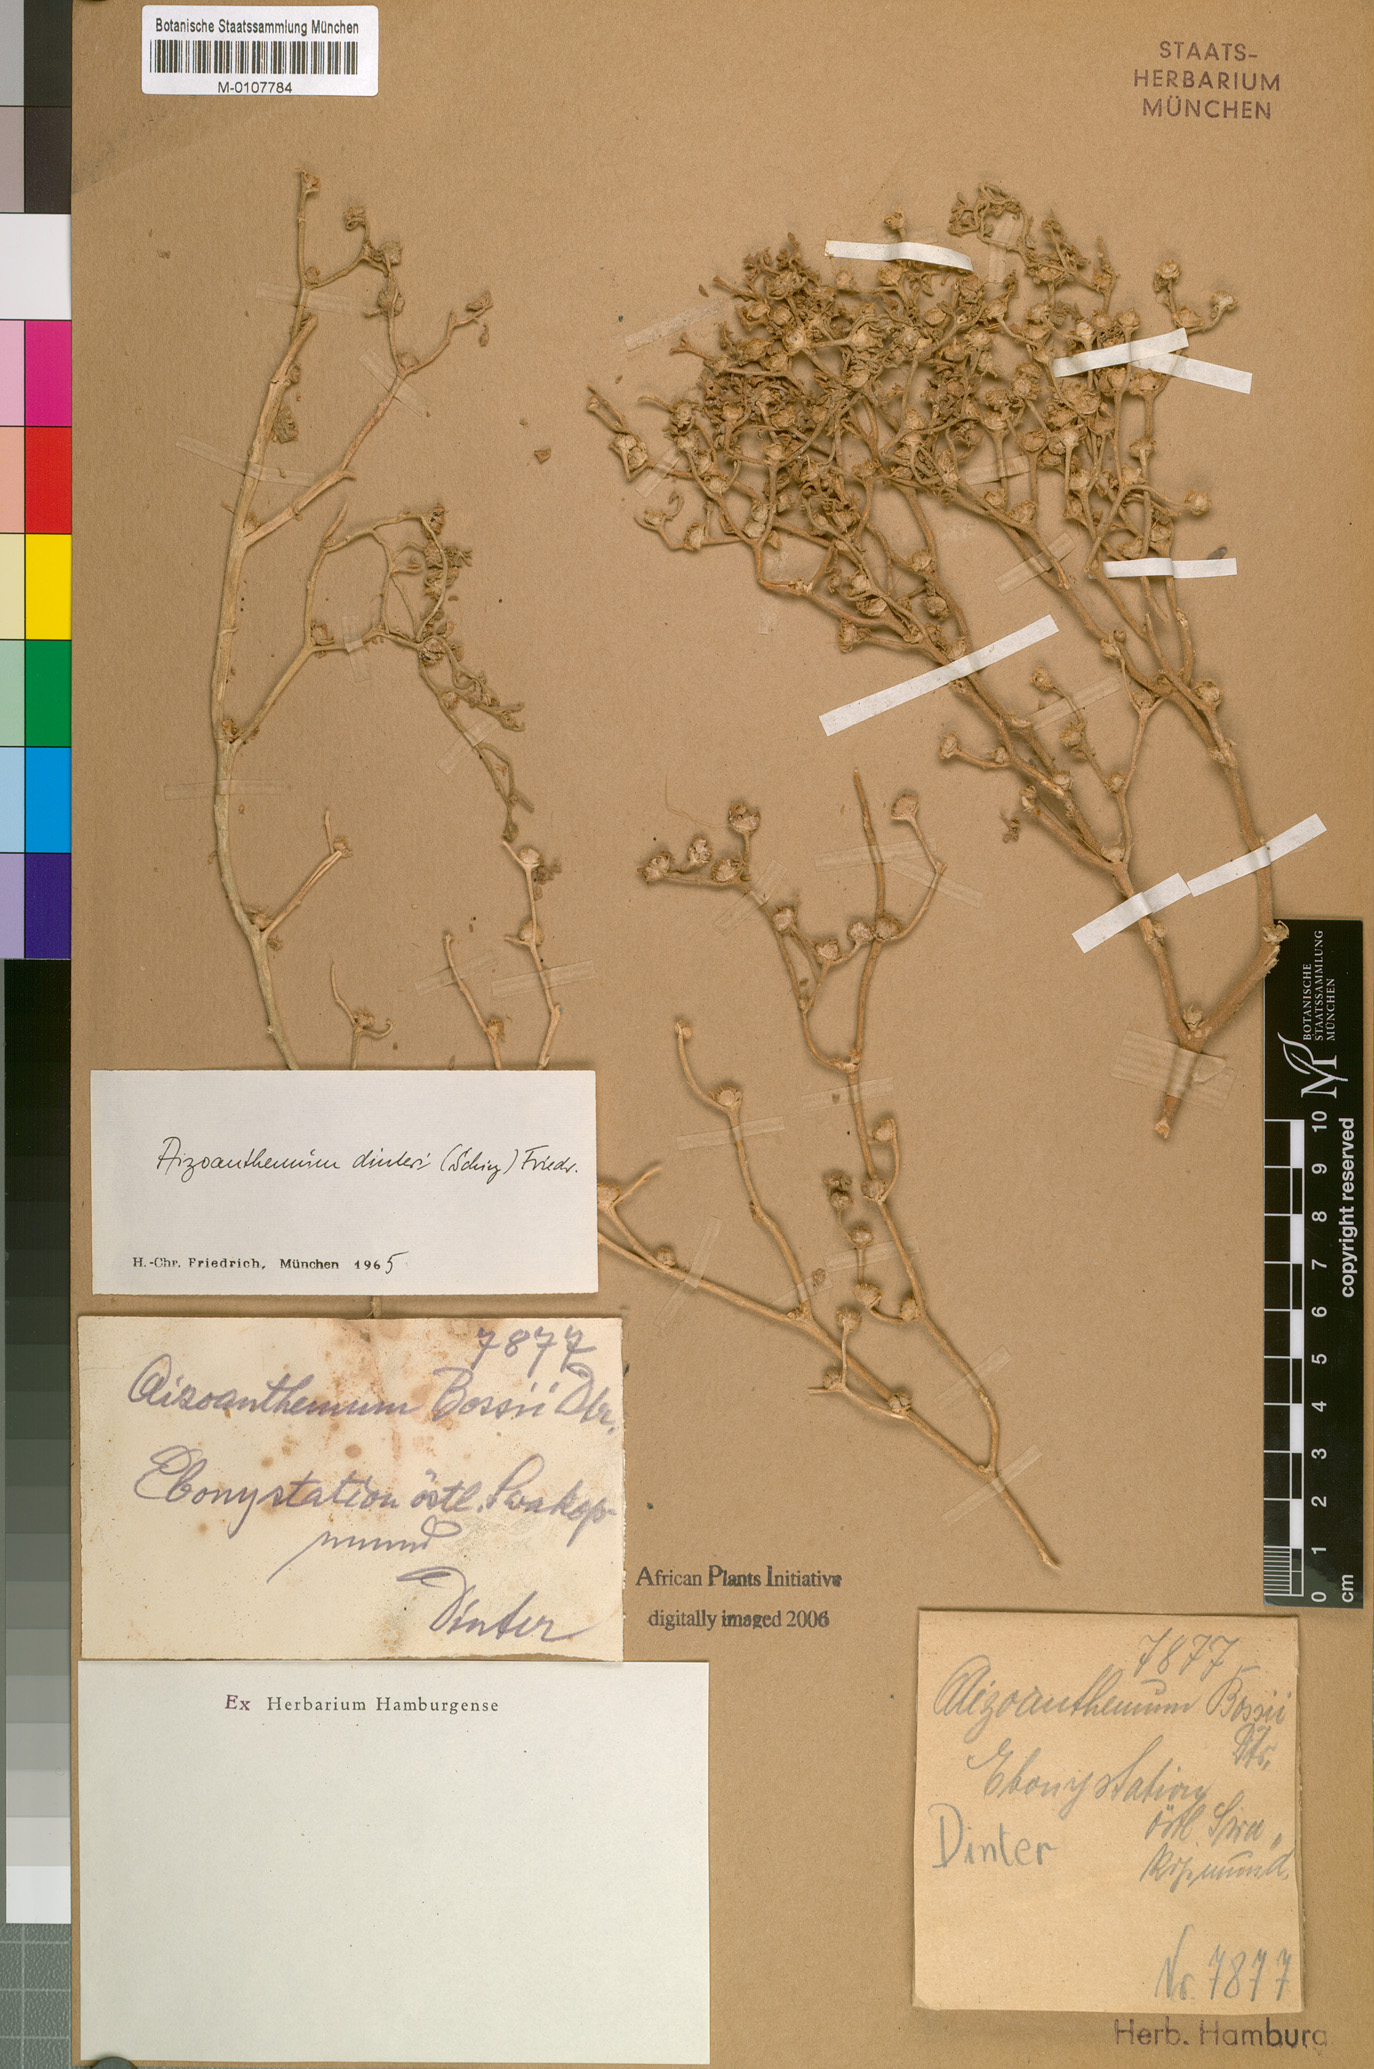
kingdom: Plantae
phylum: Tracheophyta
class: Magnoliopsida
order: Caryophyllales
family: Aizoaceae
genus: Aizoanthemum
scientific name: Aizoanthemum dinteri
